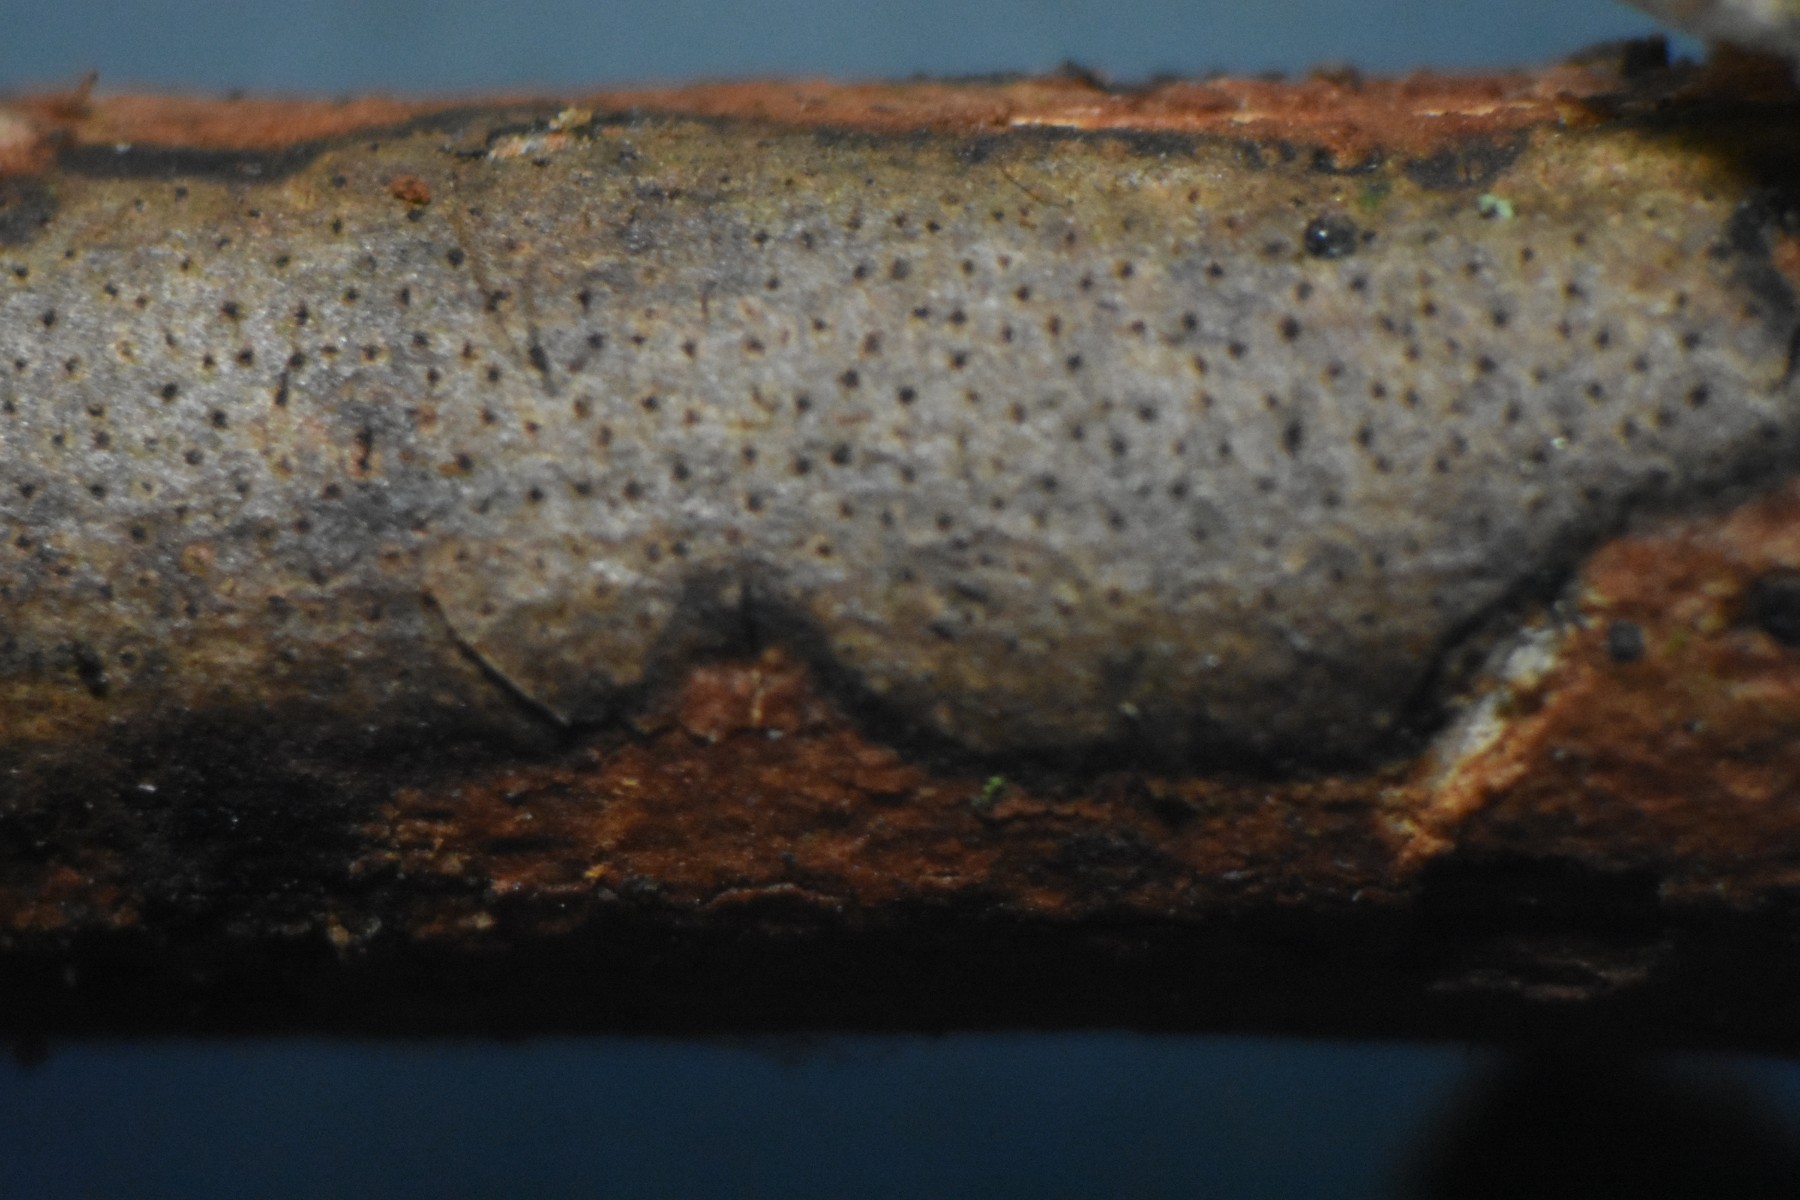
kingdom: Fungi
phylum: Ascomycota
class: Sordariomycetes
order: Xylariales
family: Diatrypaceae
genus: Diatrype
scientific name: Diatrype
